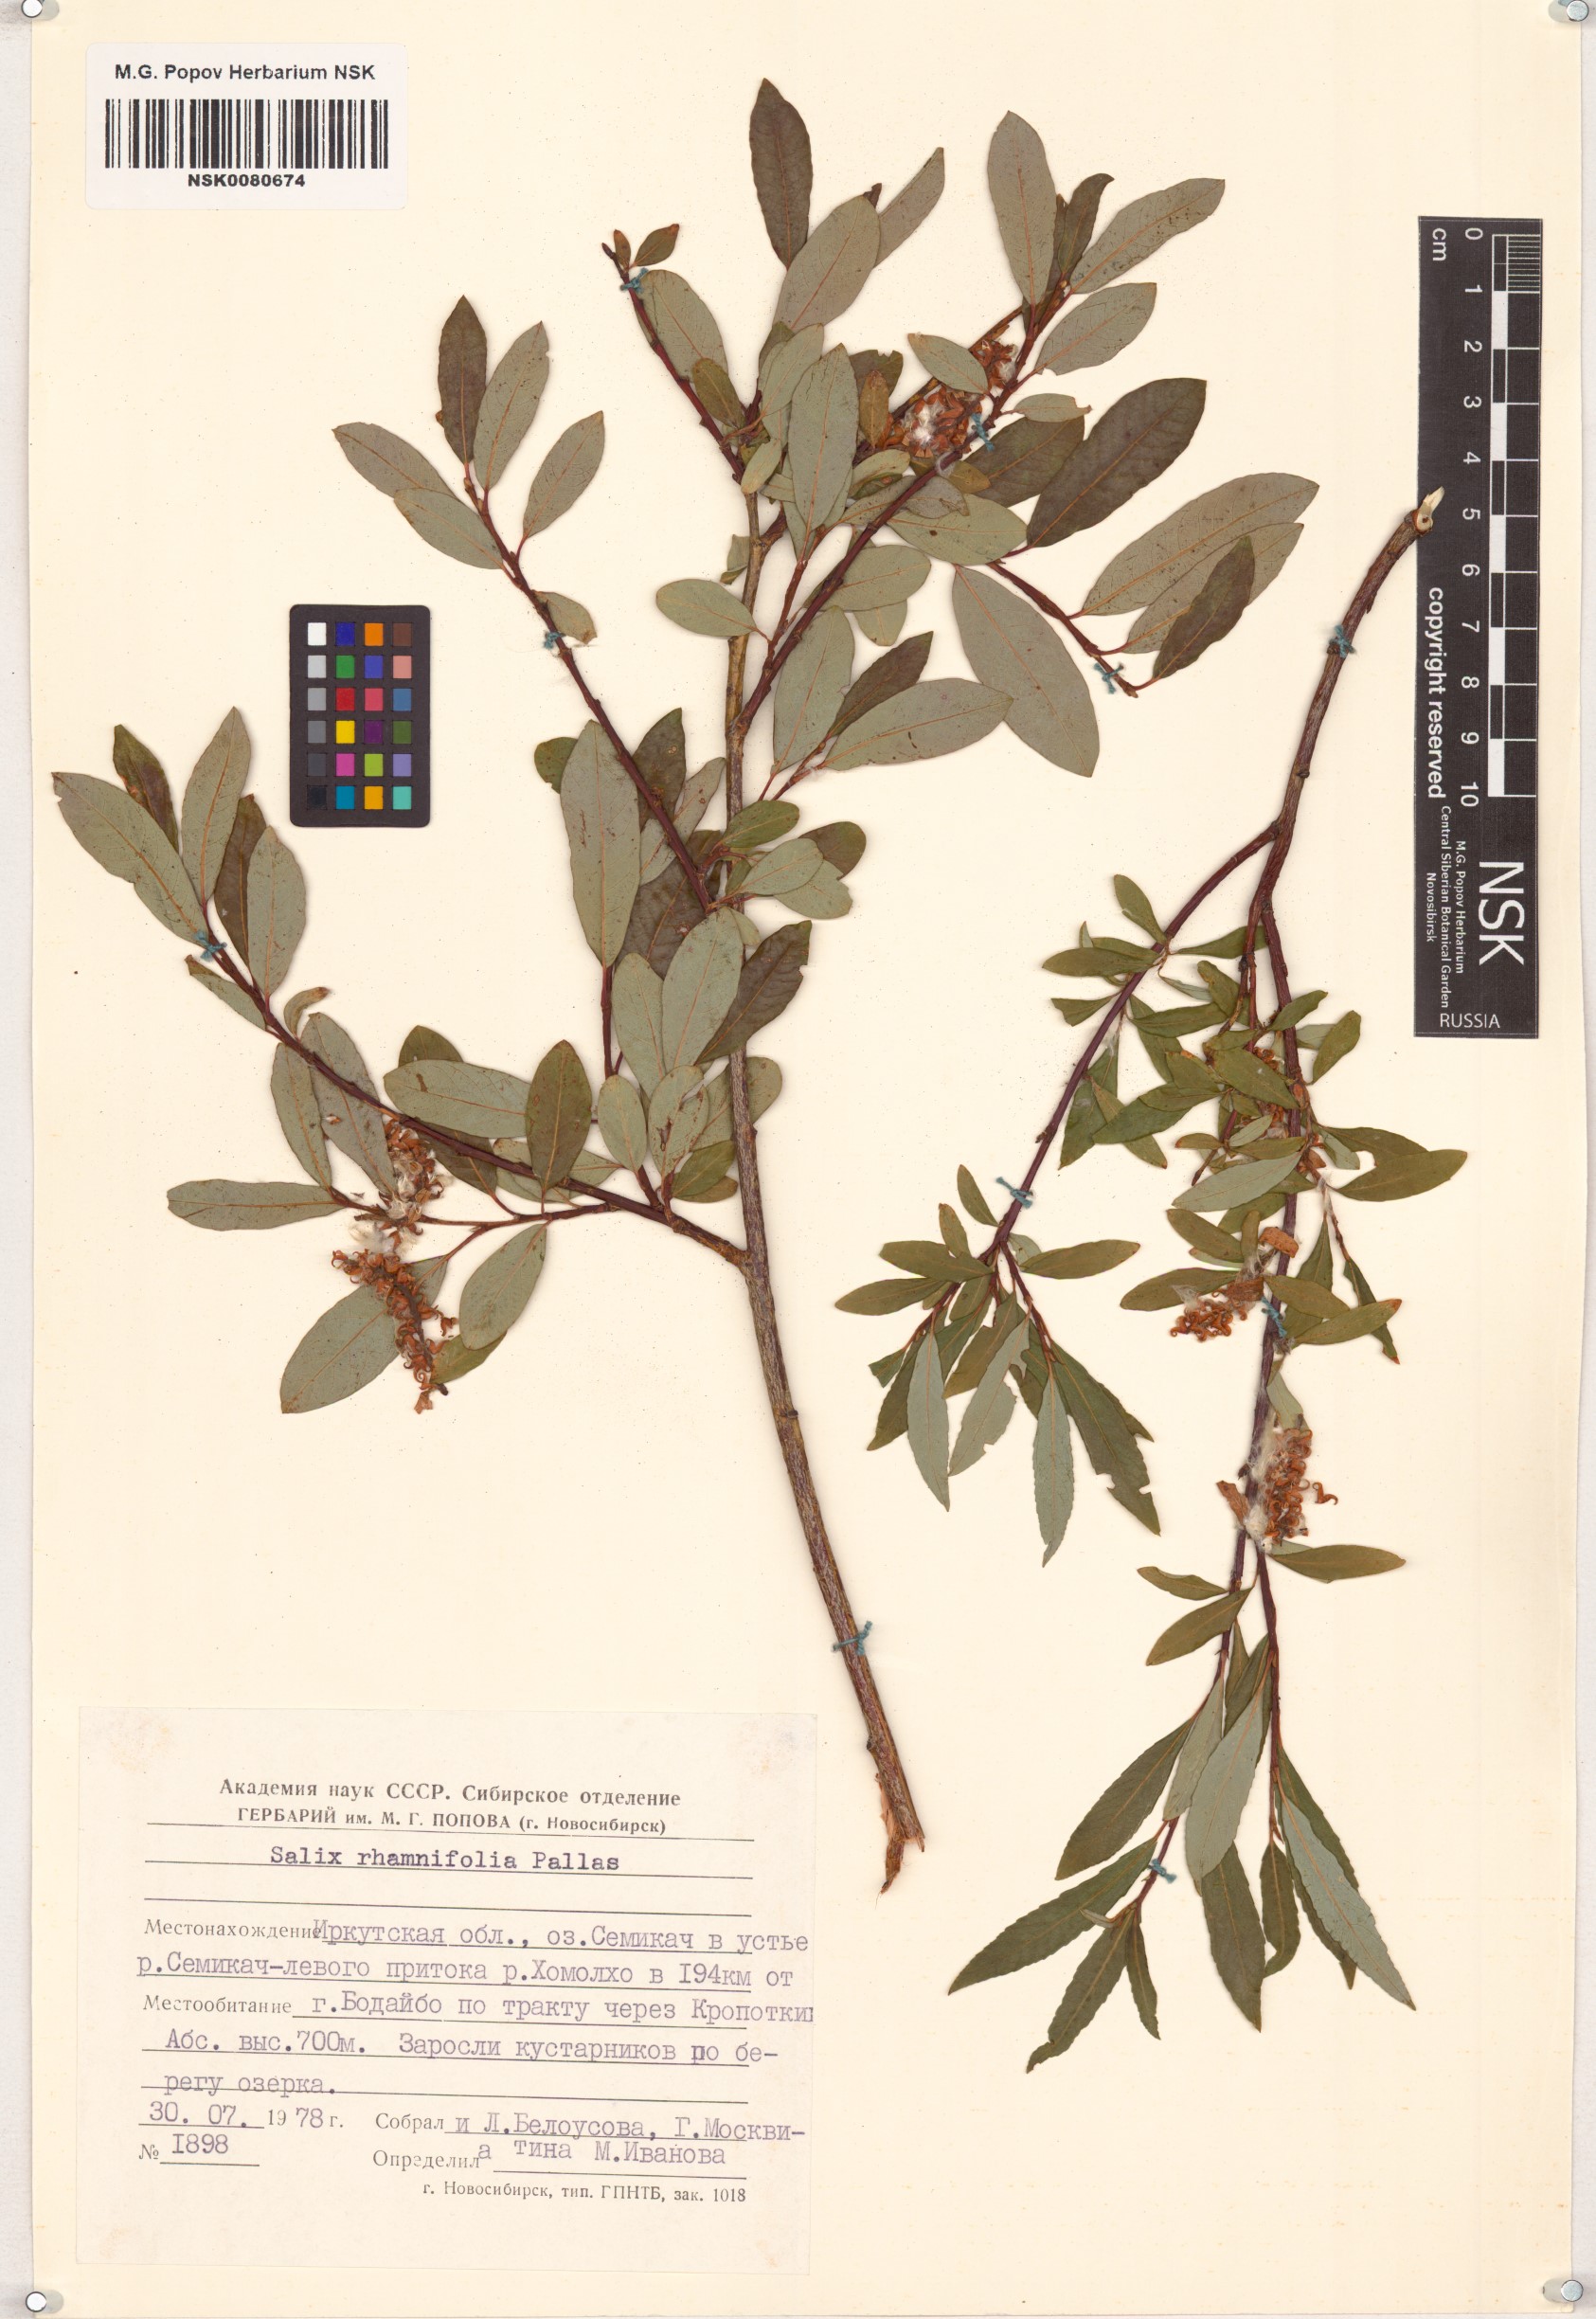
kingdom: Plantae
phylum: Tracheophyta
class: Magnoliopsida
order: Malpighiales
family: Salicaceae
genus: Salix
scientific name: Salix rhamnifolia
